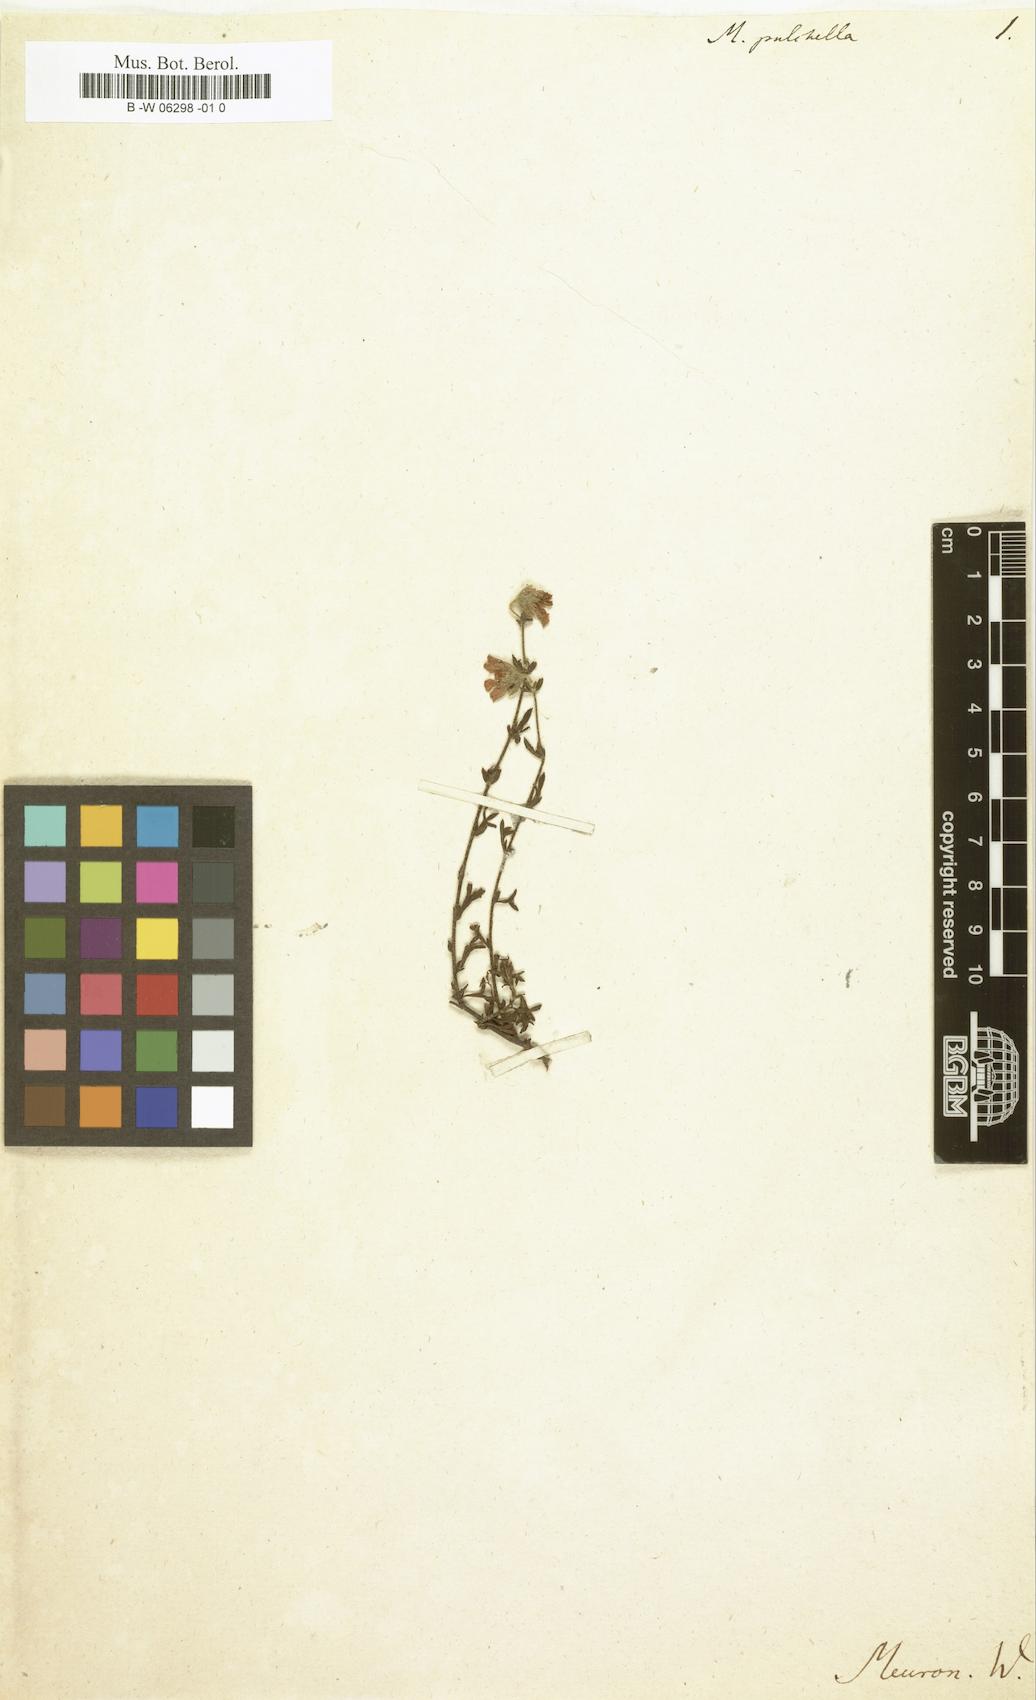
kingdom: Plantae
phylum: Tracheophyta
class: Magnoliopsida
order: Malvales
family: Malvaceae
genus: Hermannia
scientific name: Hermannia pulchella
